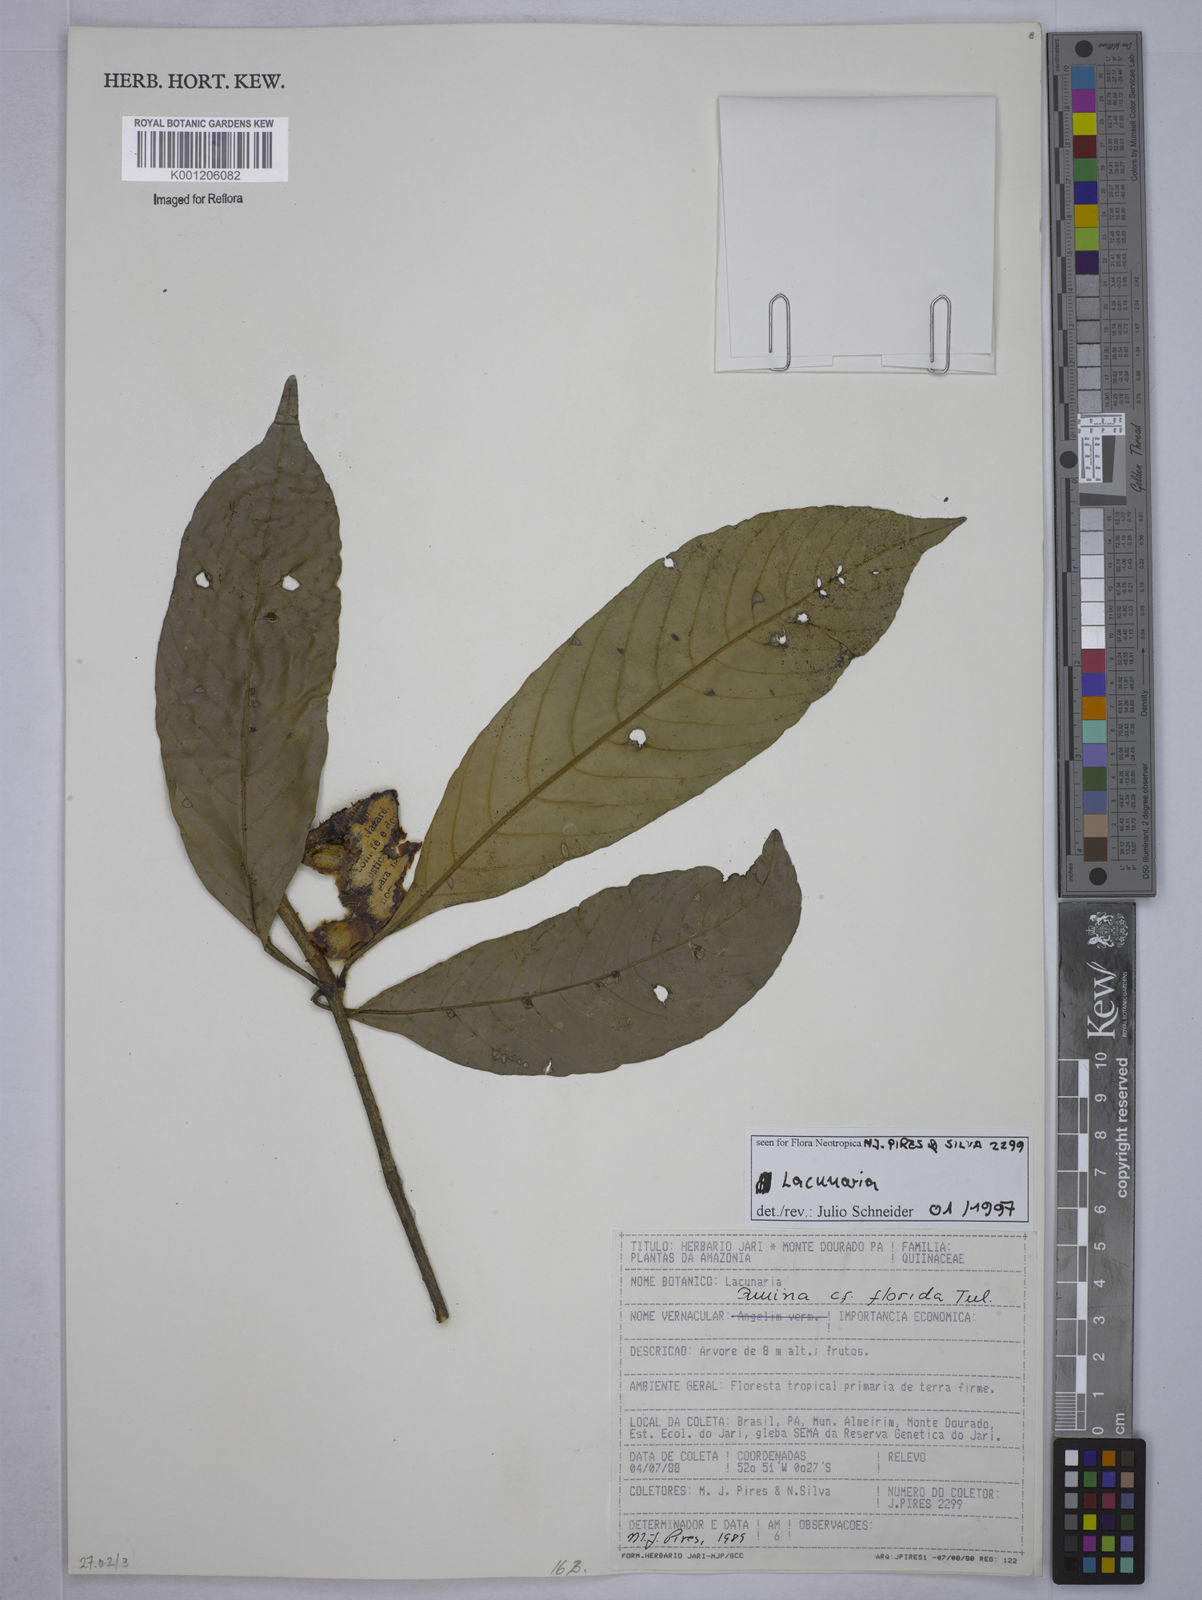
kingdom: Plantae
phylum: Tracheophyta
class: Magnoliopsida
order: Malpighiales
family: Quiinaceae
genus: Lacunaria
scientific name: Lacunaria
